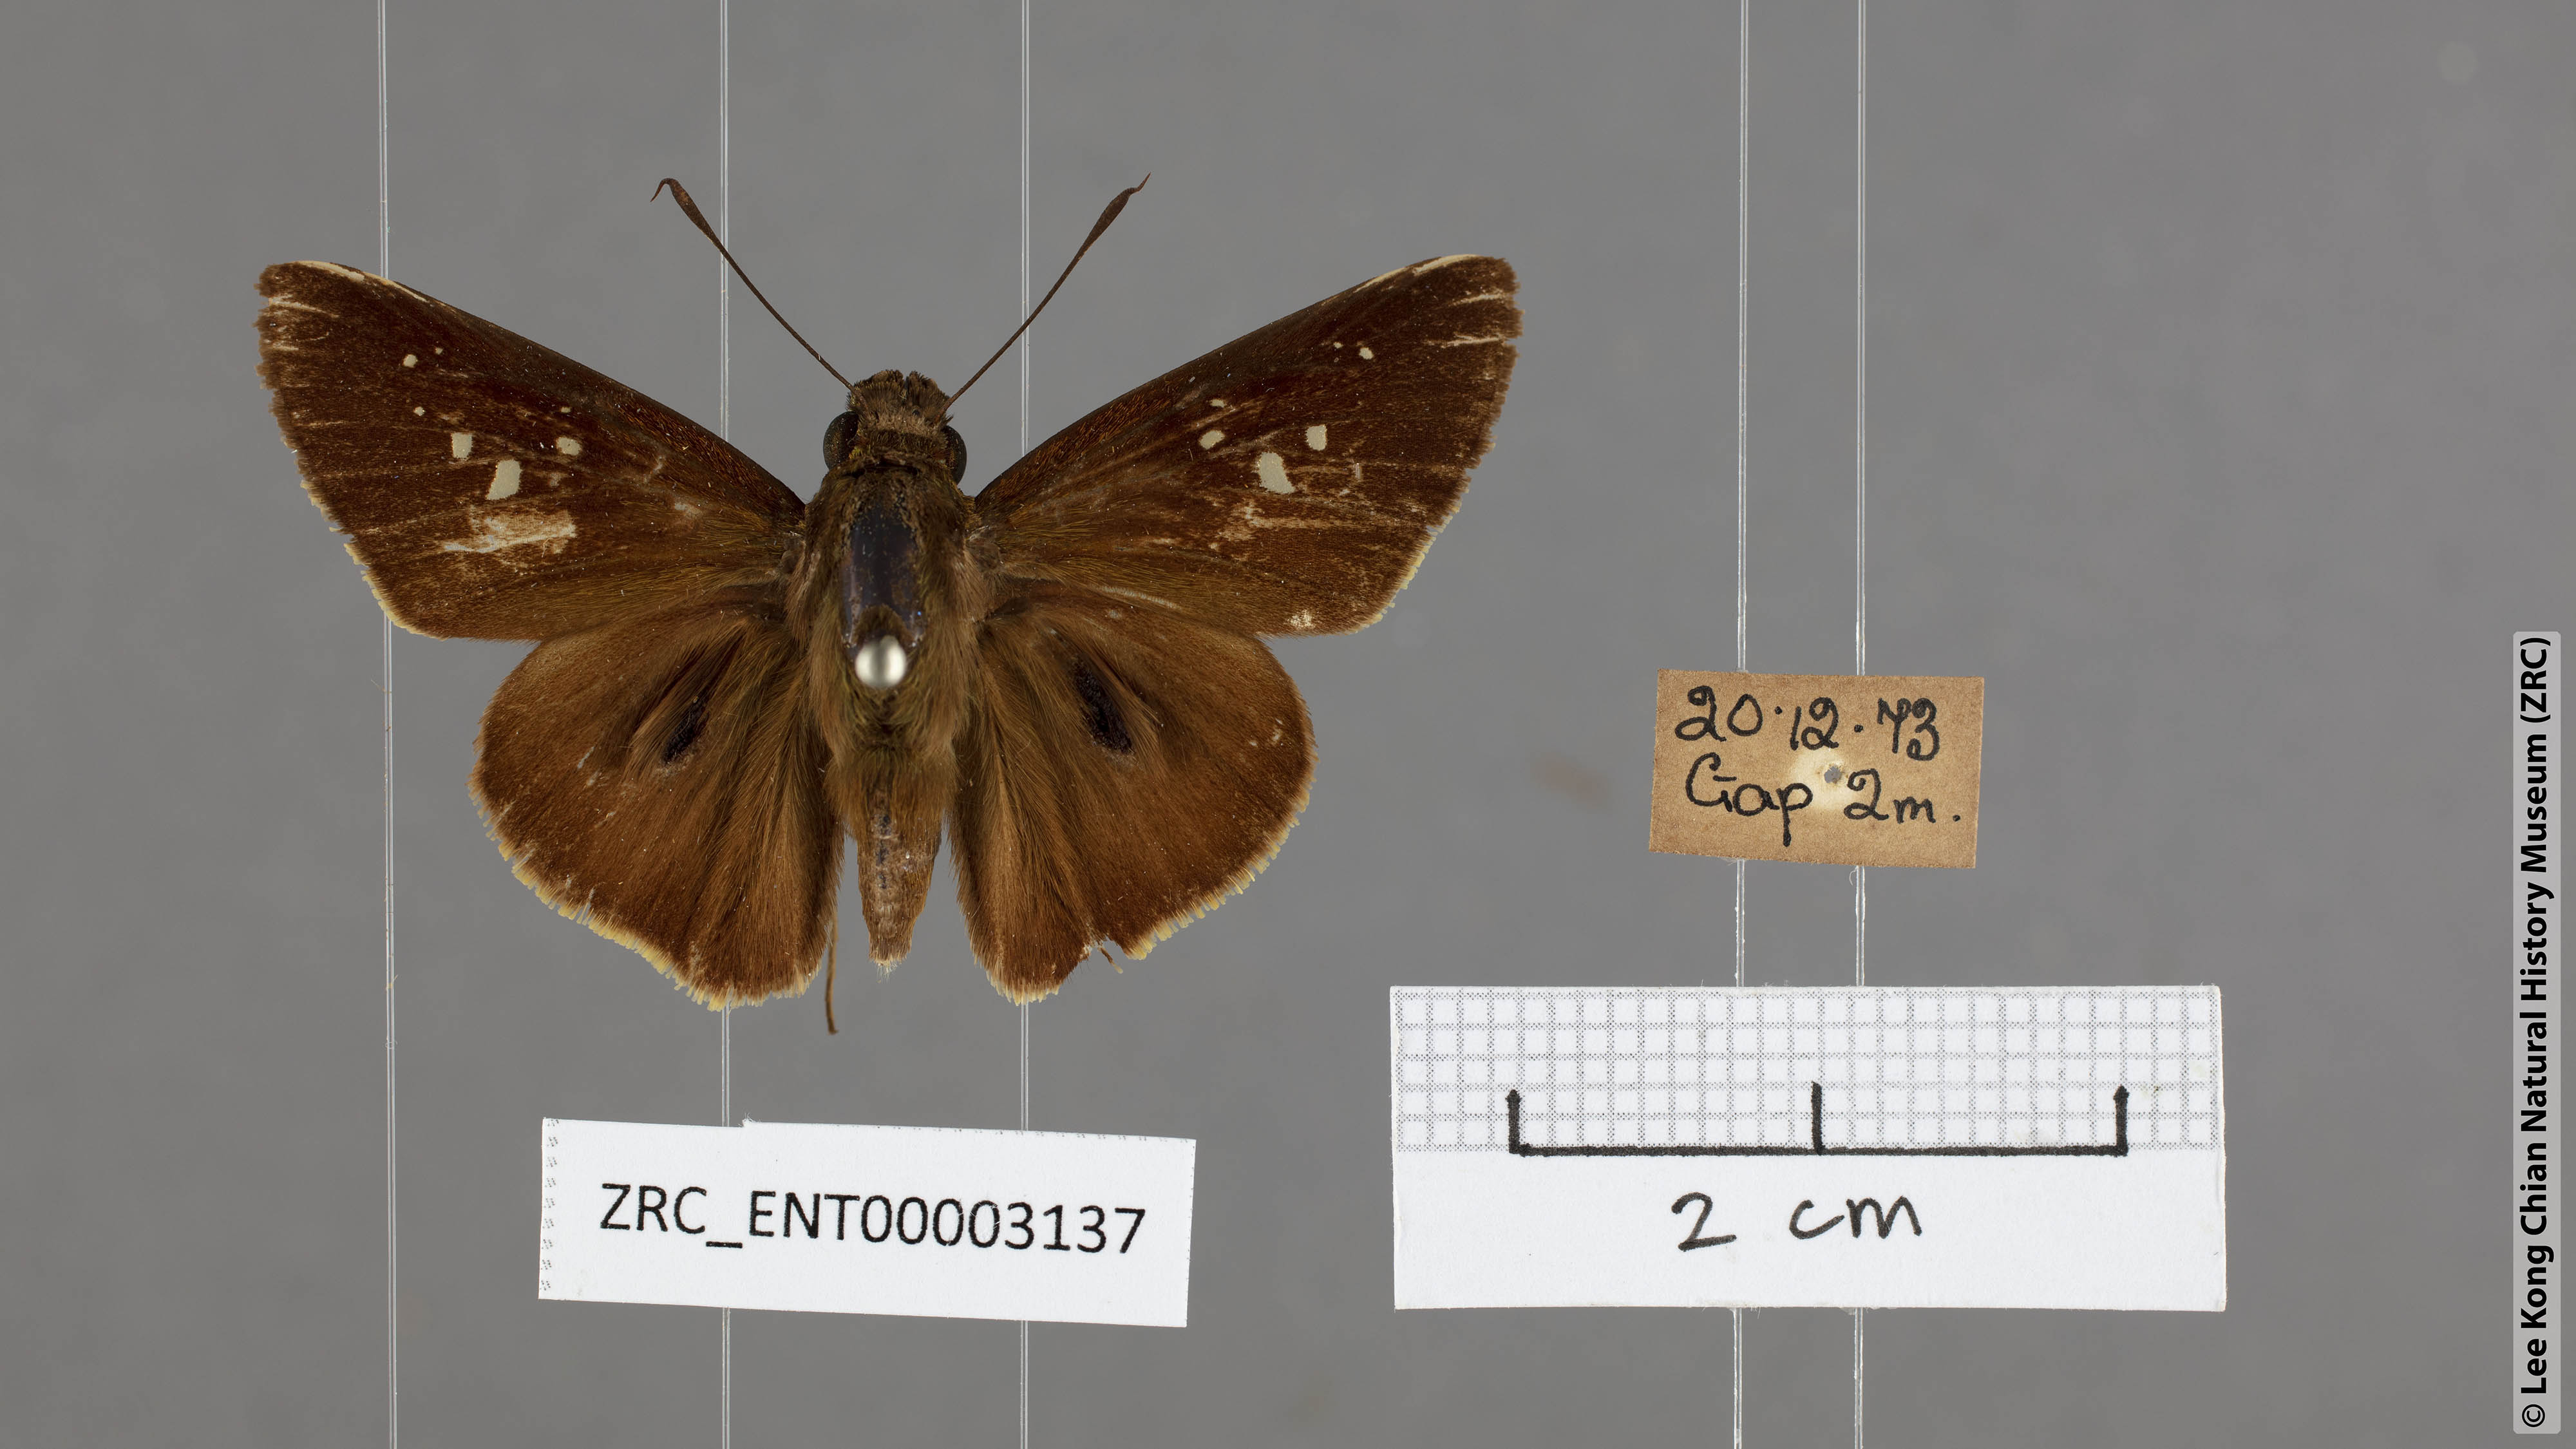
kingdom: Animalia
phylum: Arthropoda
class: Insecta
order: Lepidoptera
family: Hesperiidae
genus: Baoris
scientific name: Baoris oceia
